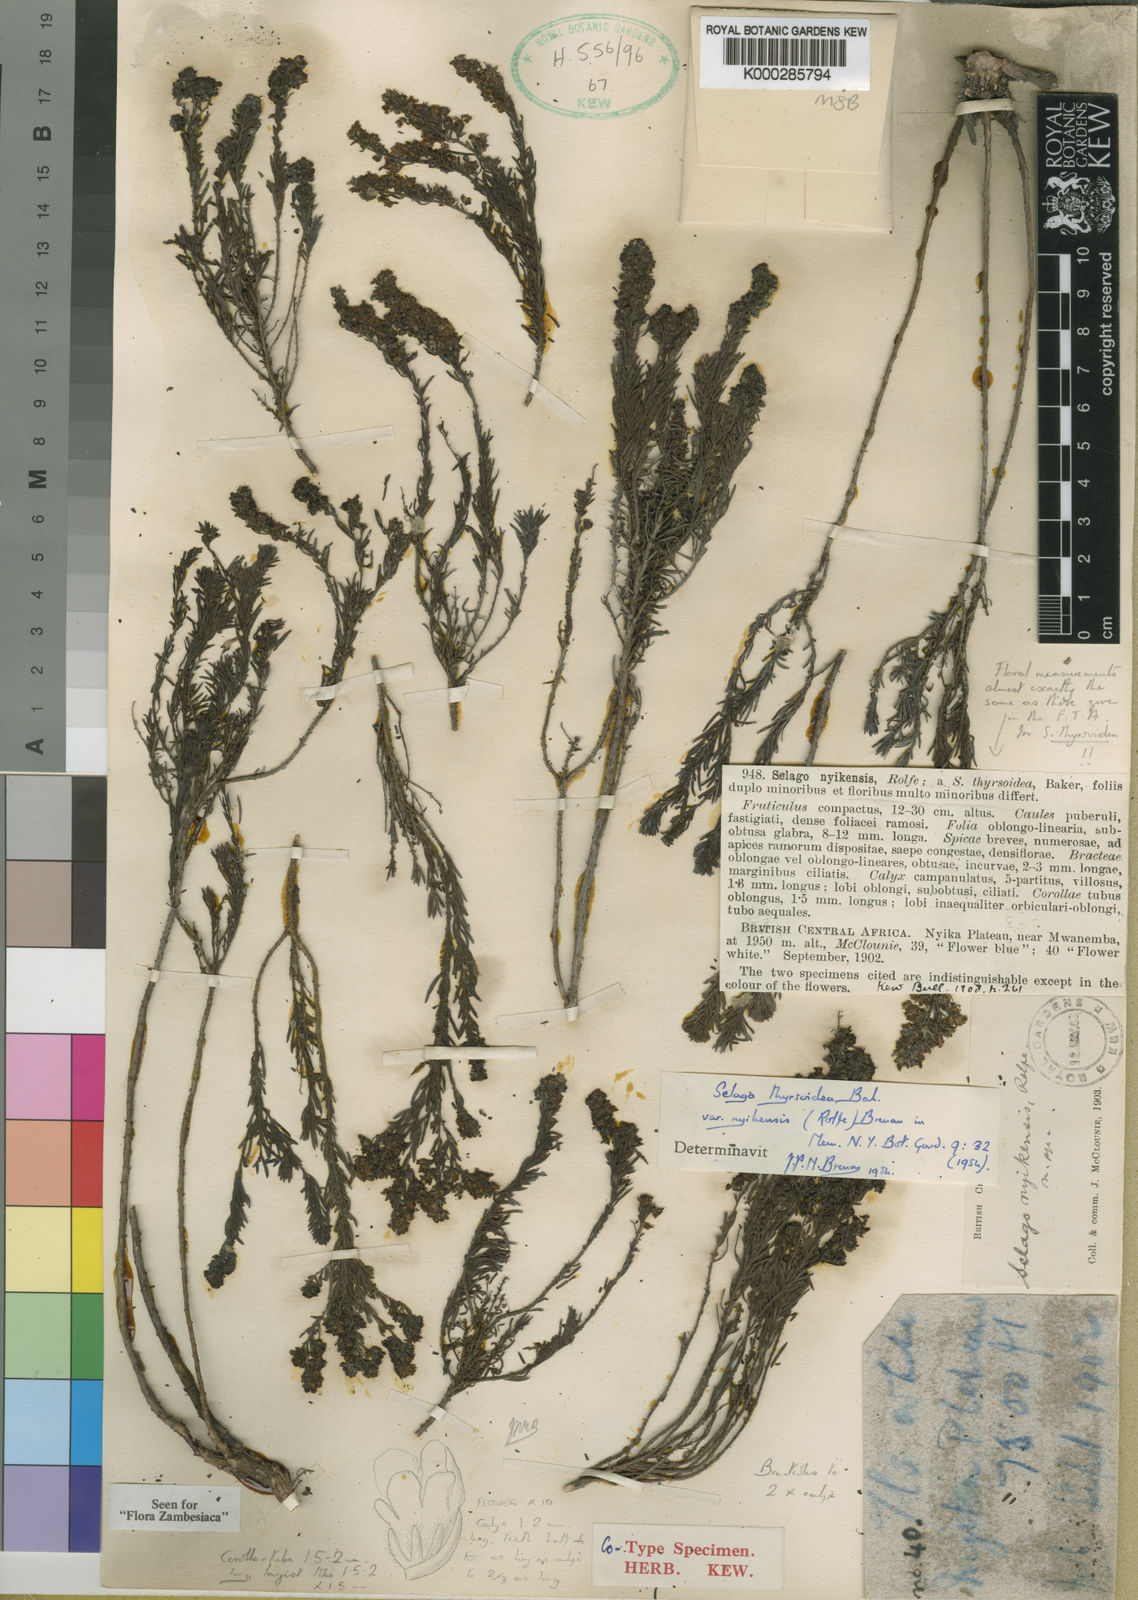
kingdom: Plantae
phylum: Tracheophyta
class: Magnoliopsida
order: Lamiales
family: Scrophulariaceae
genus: Selago
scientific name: Selago thyrsoidea
